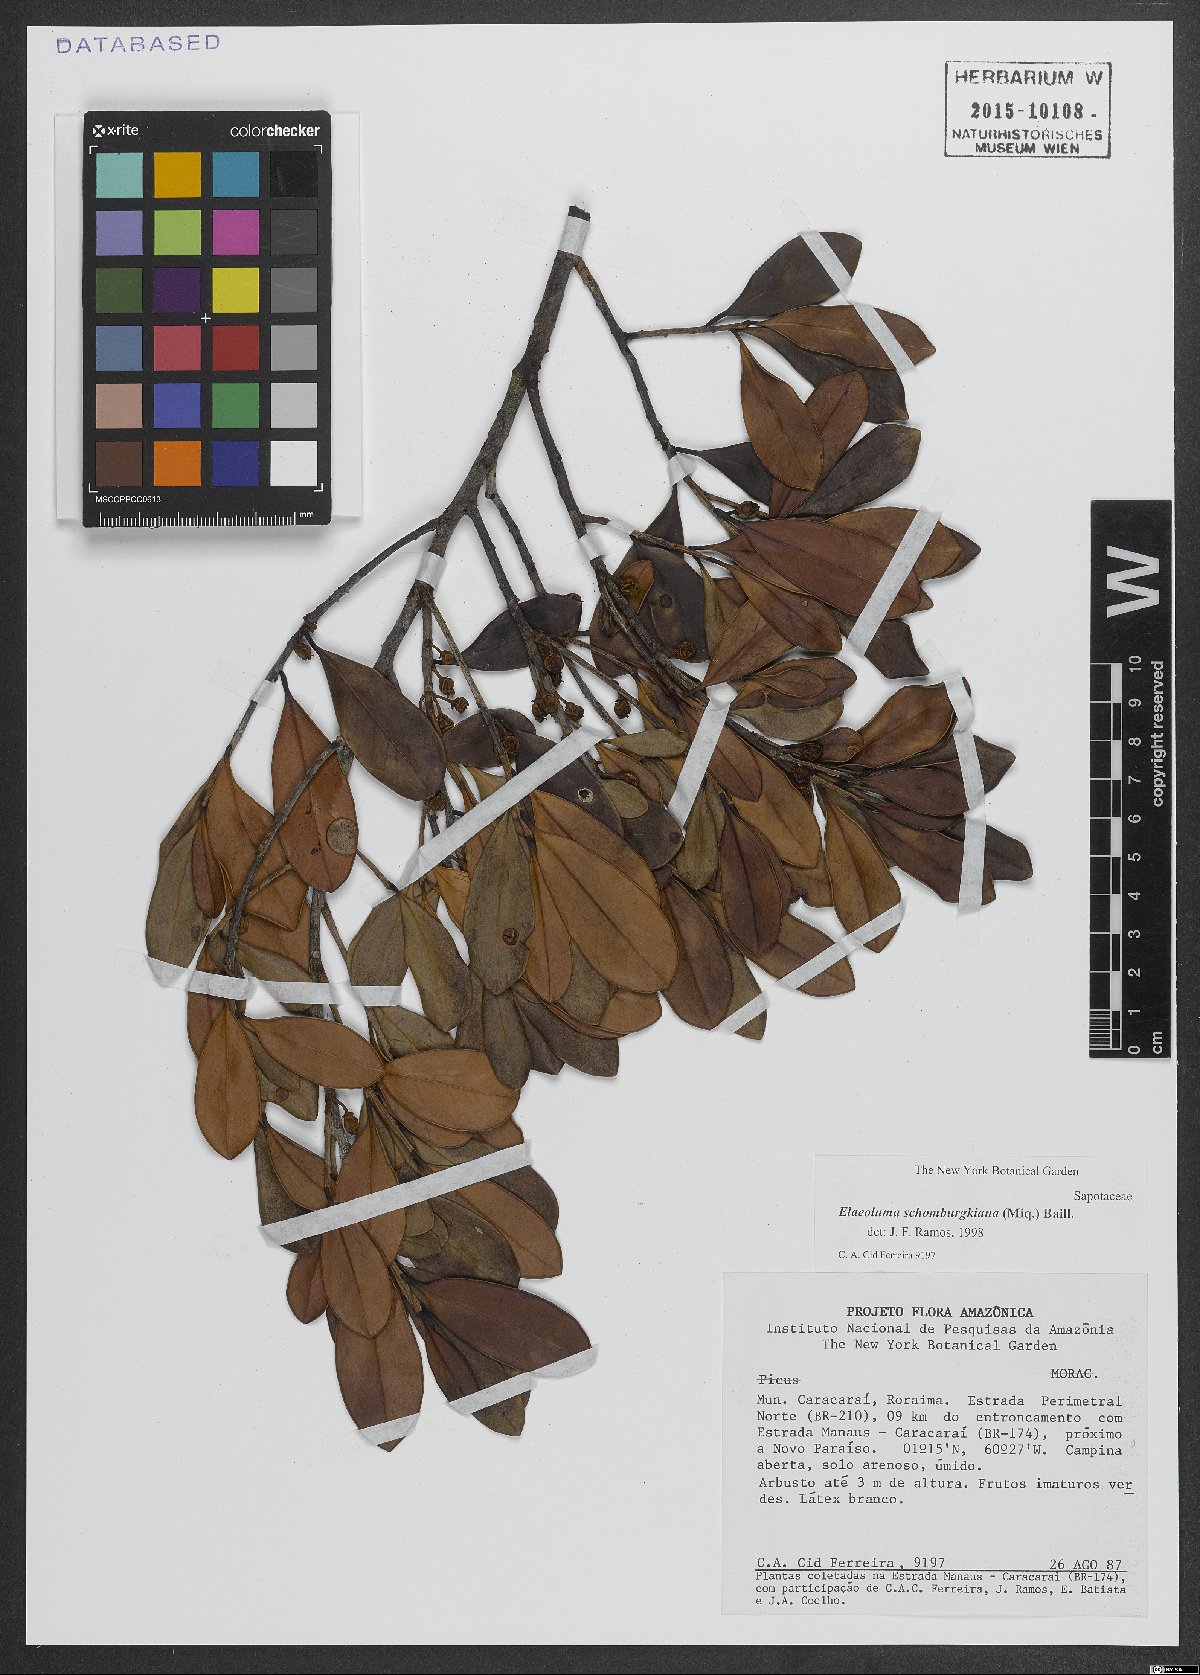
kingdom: Plantae
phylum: Tracheophyta
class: Magnoliopsida
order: Ericales
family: Sapotaceae
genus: Elaeoluma
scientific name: Elaeoluma schomburgkiana
